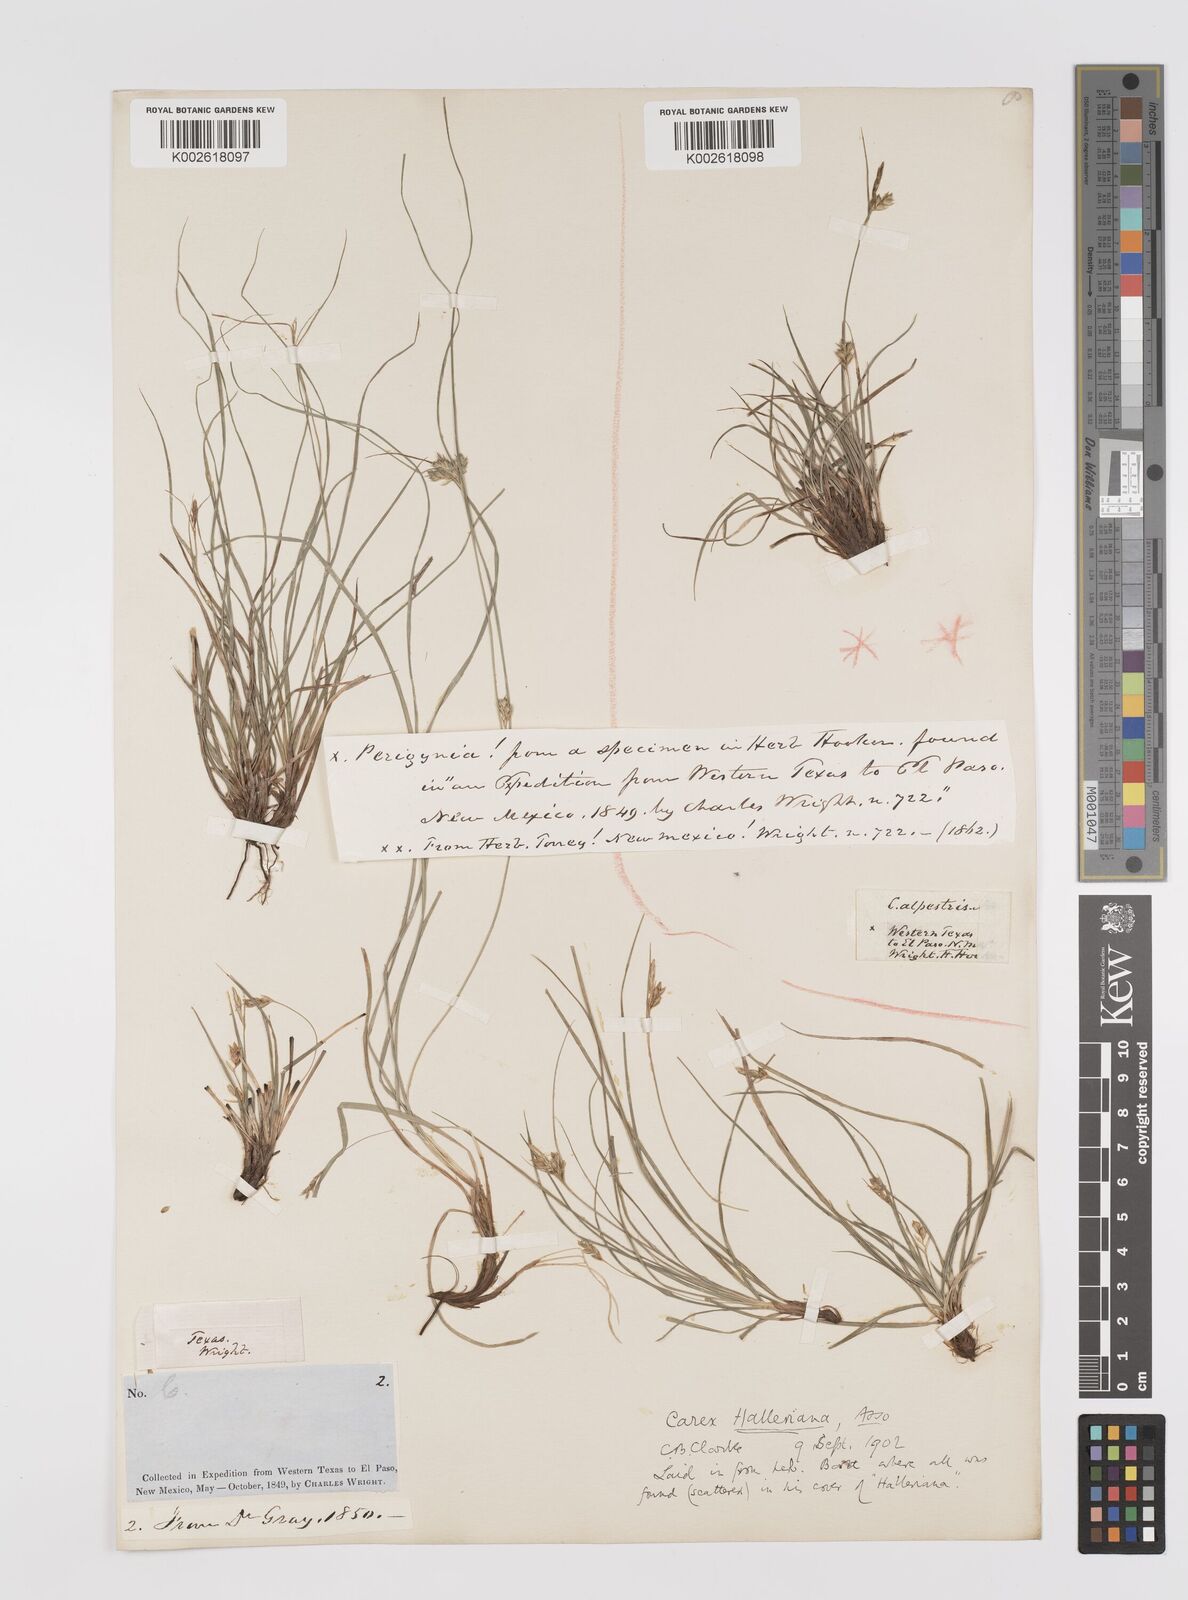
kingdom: Plantae
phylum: Tracheophyta
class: Liliopsida
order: Poales
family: Cyperaceae
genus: Carex
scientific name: Carex planostachys
